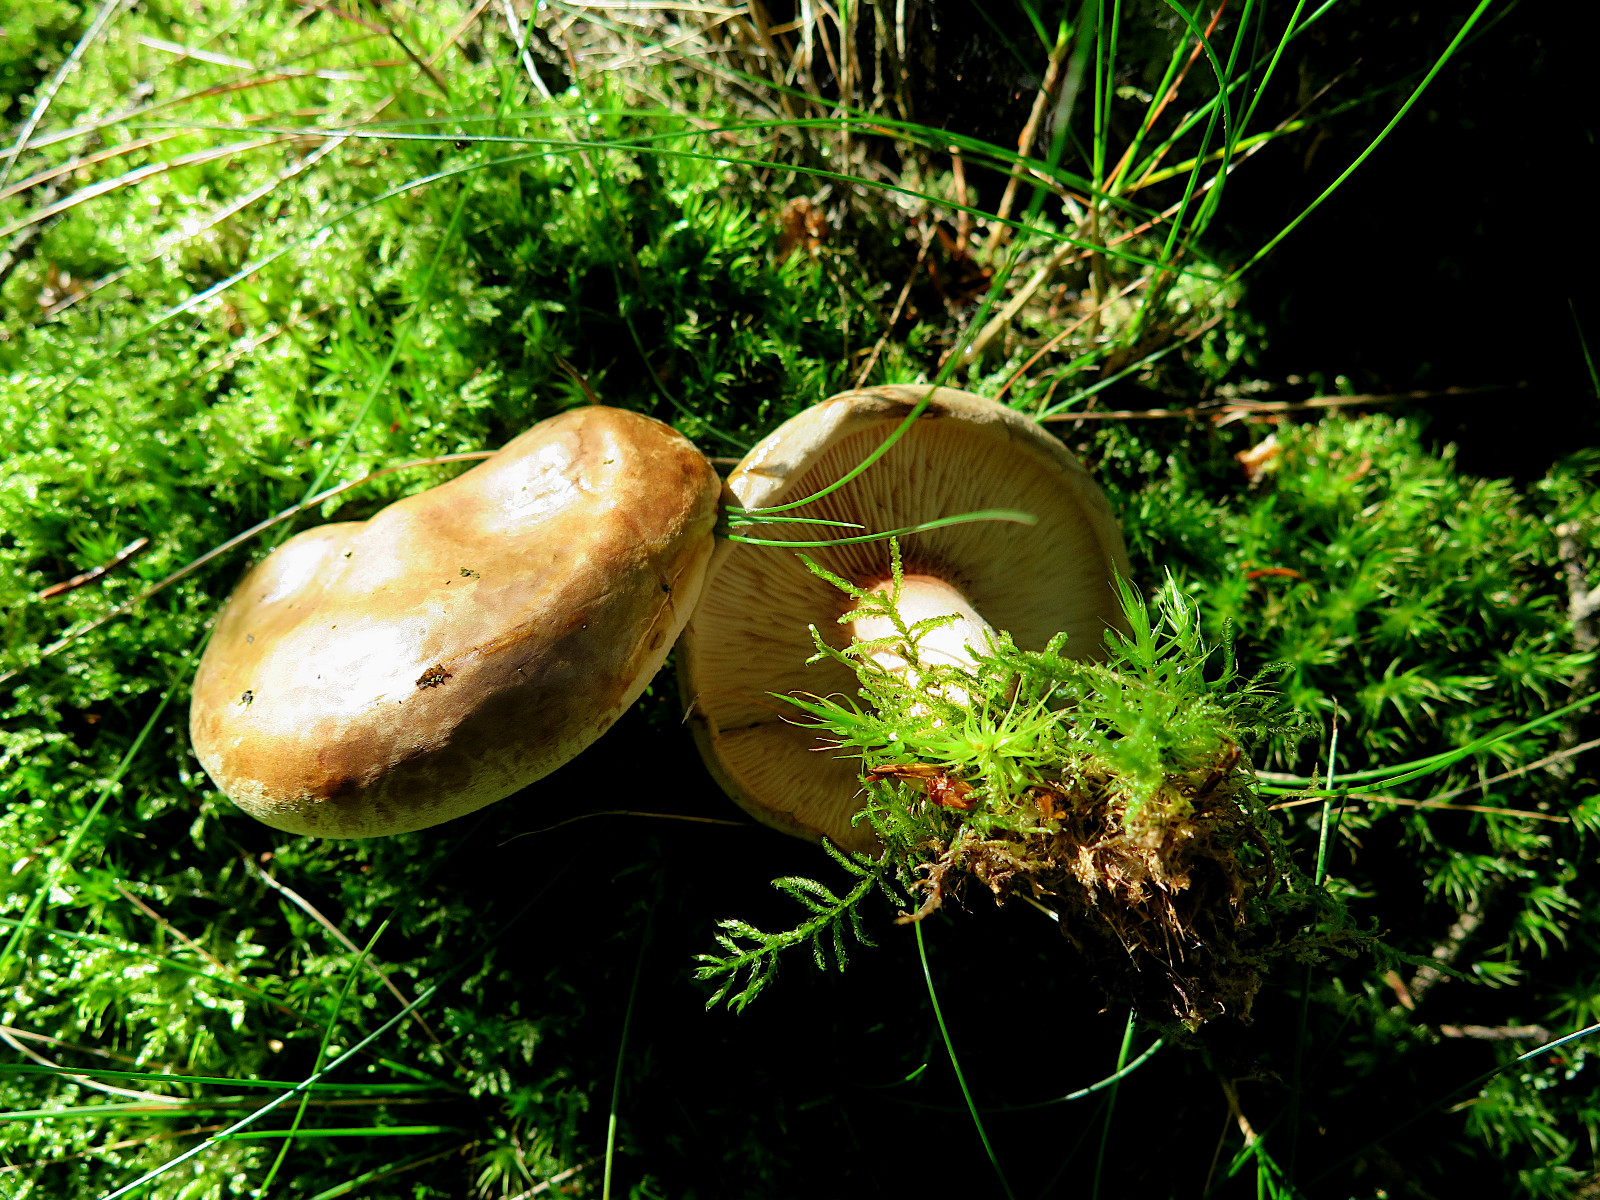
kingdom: Fungi
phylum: Basidiomycota
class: Agaricomycetes
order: Boletales
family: Paxillaceae
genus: Paxillus
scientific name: Paxillus involutus
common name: almindelig netbladhat
